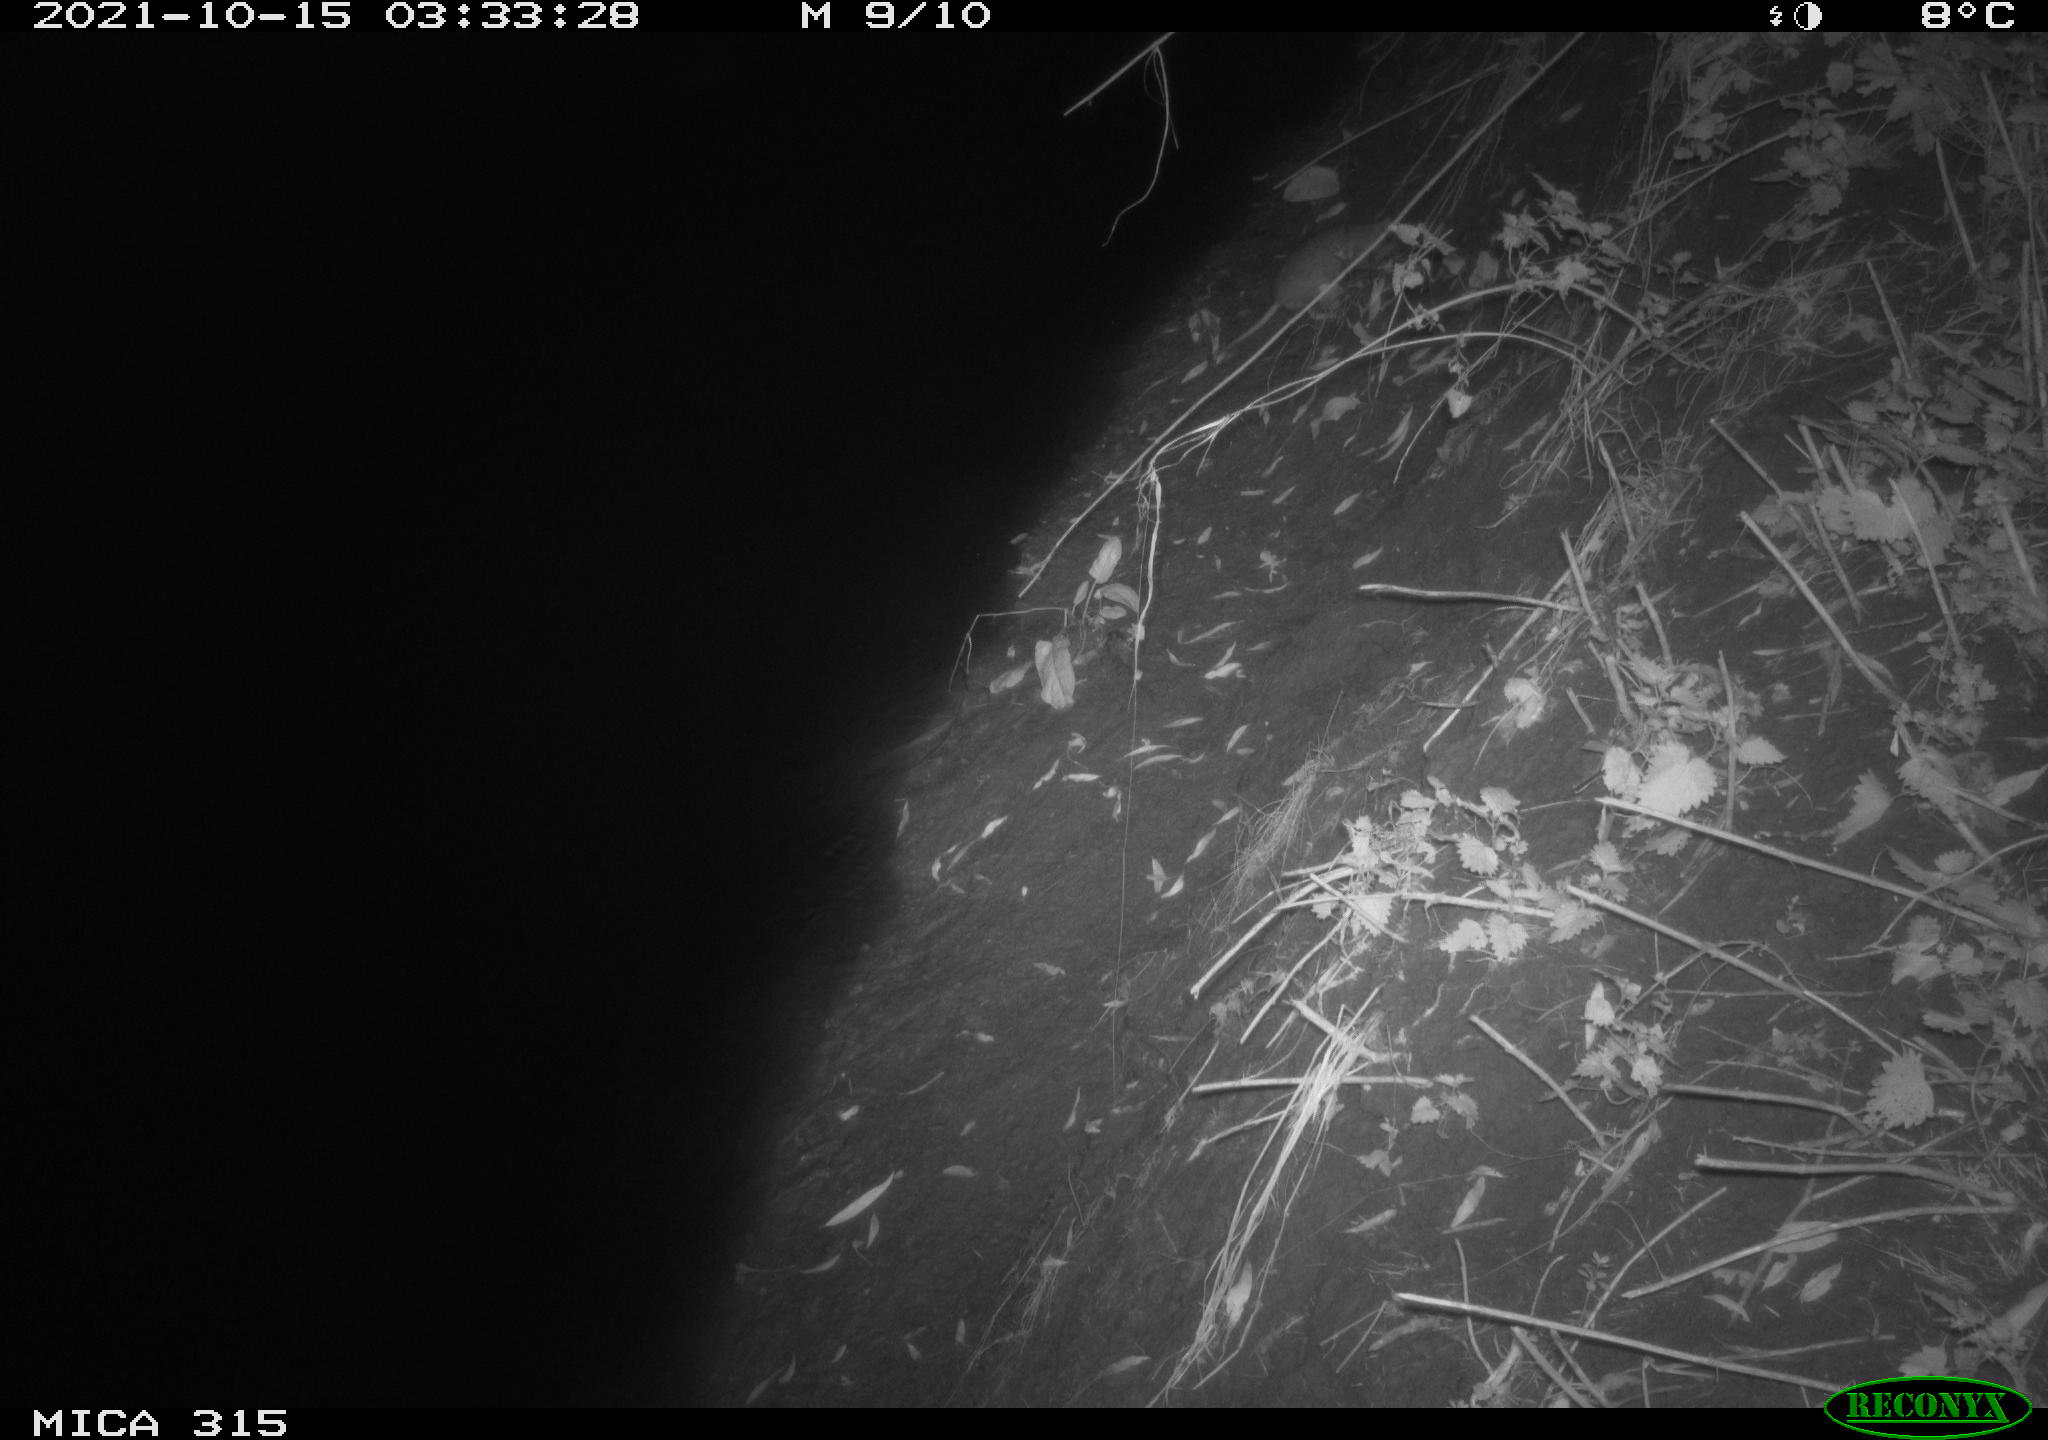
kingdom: Animalia
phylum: Chordata
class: Mammalia
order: Rodentia
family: Muridae
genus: Rattus
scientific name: Rattus norvegicus
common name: Brown rat
